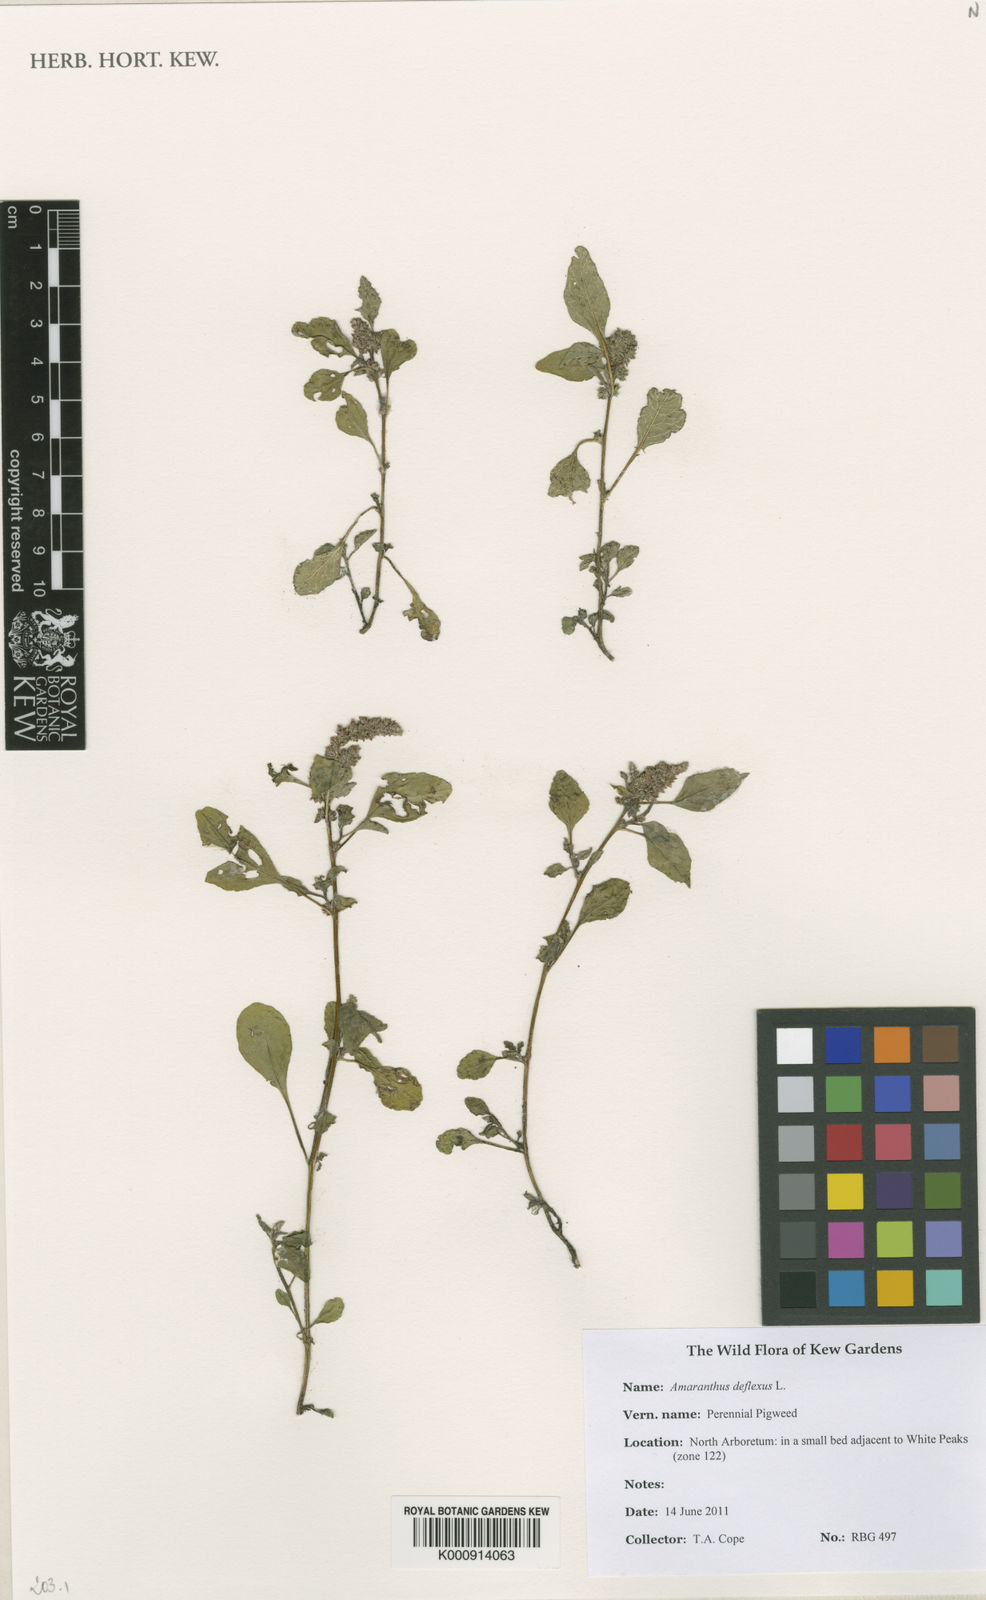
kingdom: Plantae
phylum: Tracheophyta
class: Magnoliopsida
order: Caryophyllales
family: Amaranthaceae
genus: Amaranthus
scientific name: Amaranthus deflexus
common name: Perennial pigweed
